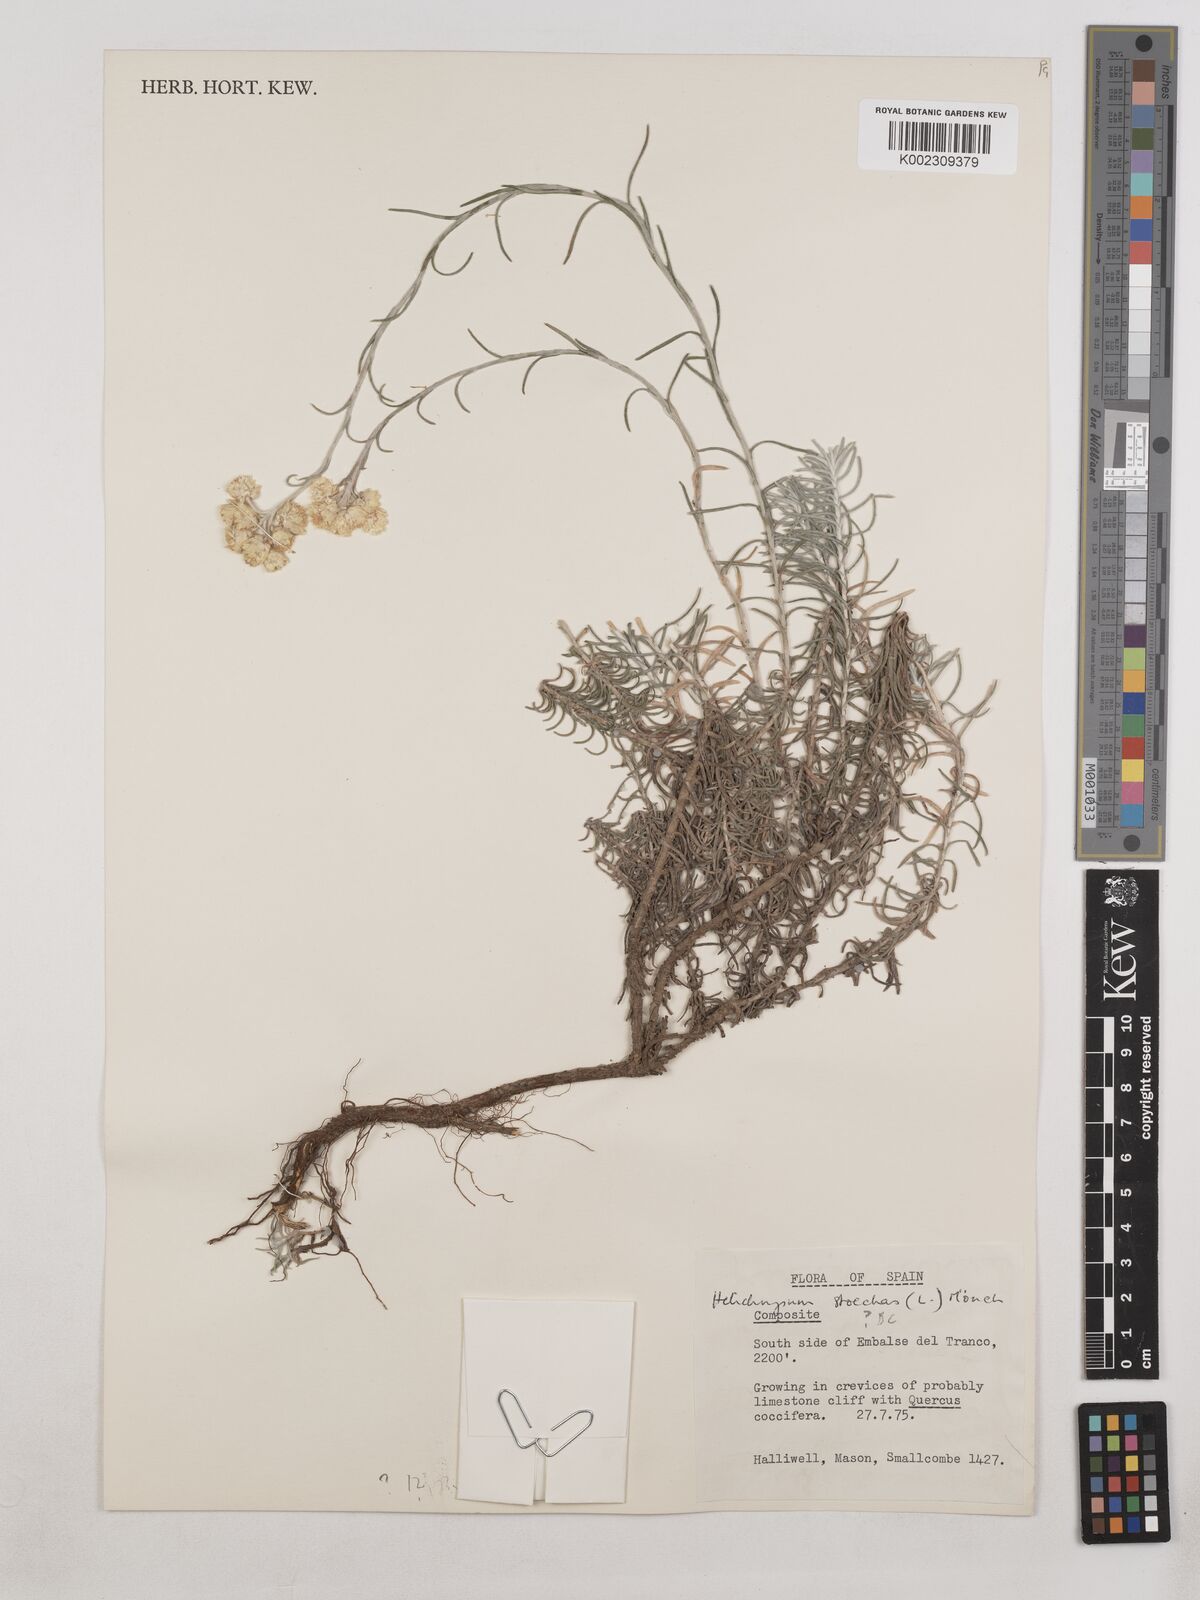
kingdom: Plantae
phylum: Tracheophyta
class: Magnoliopsida
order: Asterales
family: Asteraceae
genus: Helichrysum
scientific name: Helichrysum
